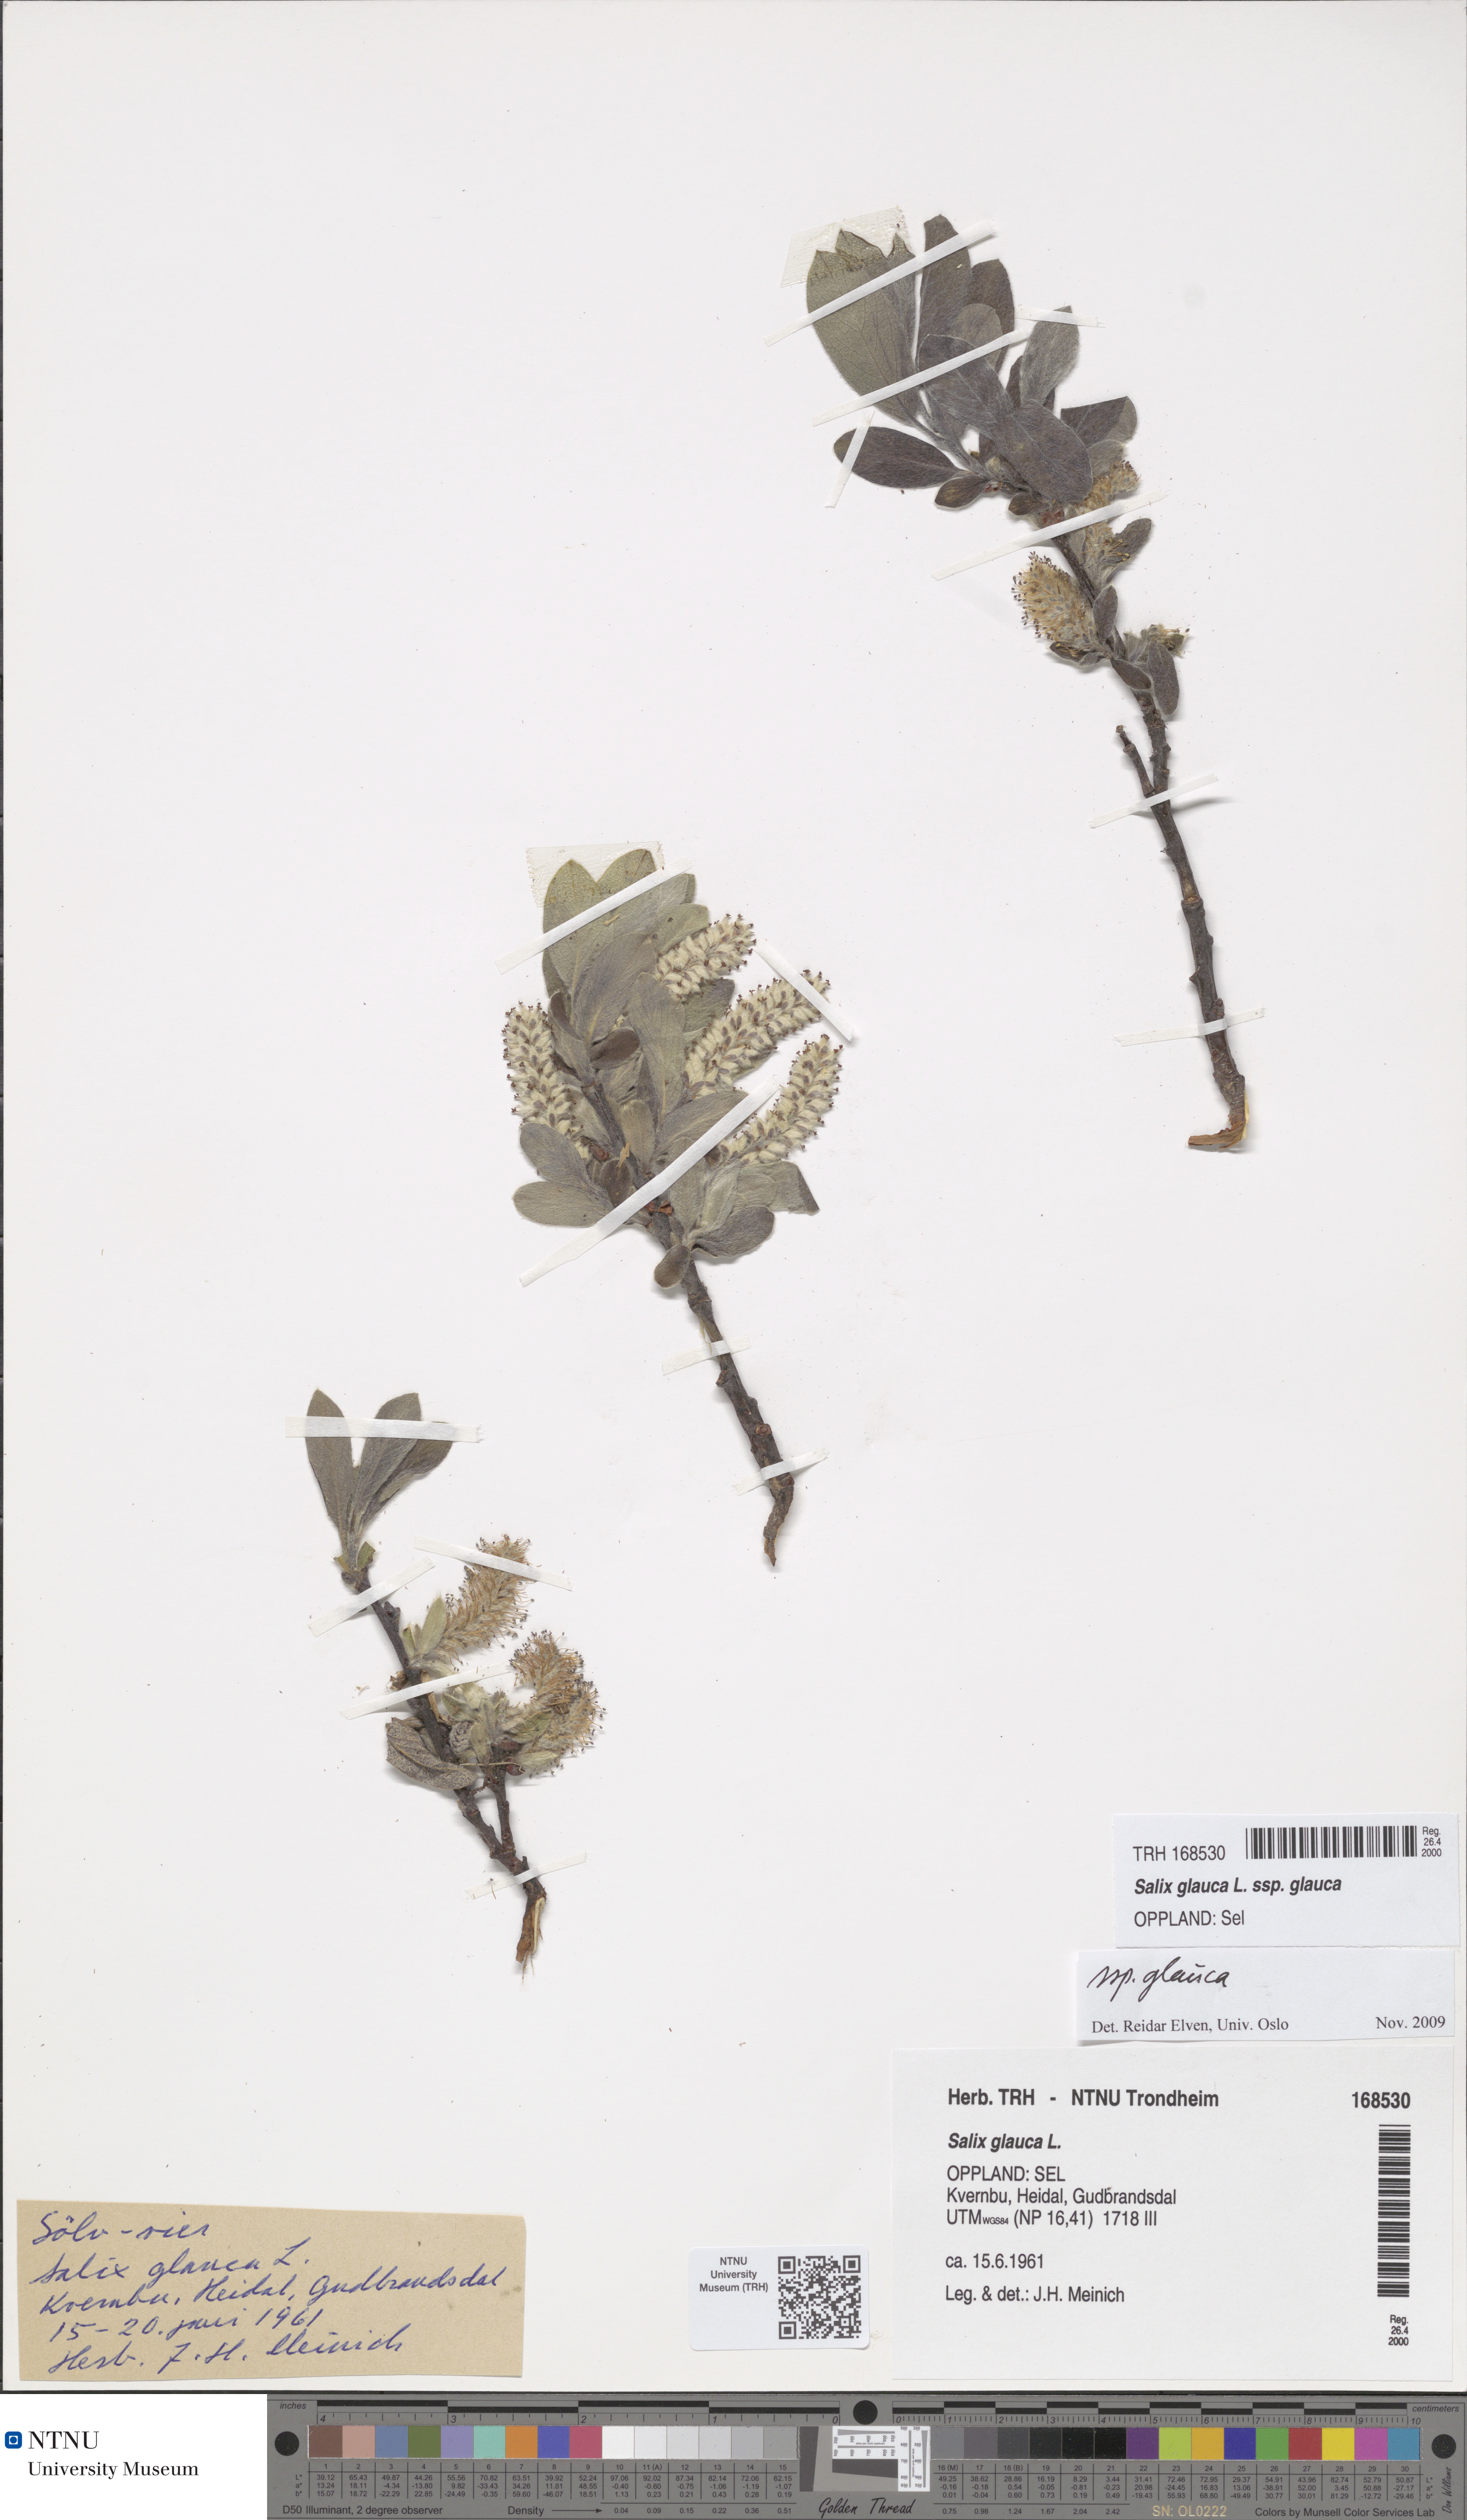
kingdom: Plantae
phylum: Tracheophyta
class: Magnoliopsida
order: Malpighiales
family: Salicaceae
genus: Salix
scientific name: Salix glauca
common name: Glaucous willow
